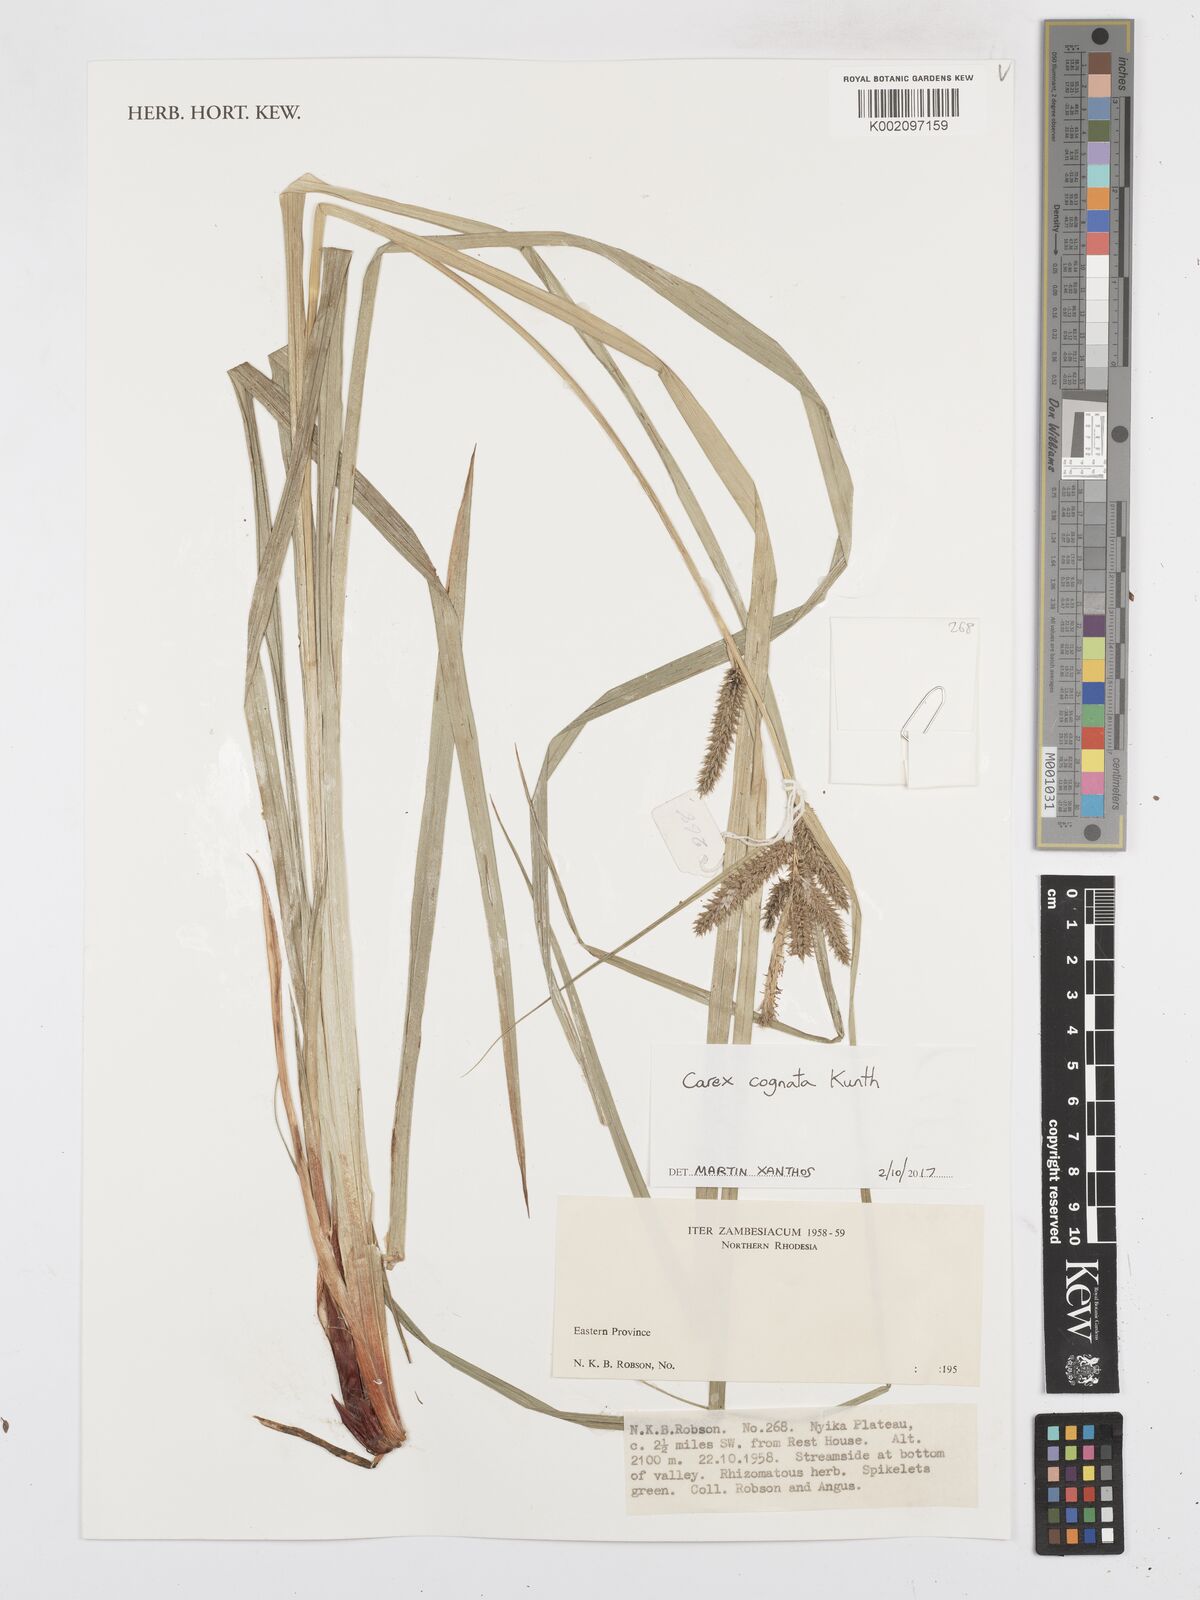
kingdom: Plantae
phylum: Tracheophyta
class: Liliopsida
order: Poales
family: Cyperaceae
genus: Carex
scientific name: Carex congolensis
